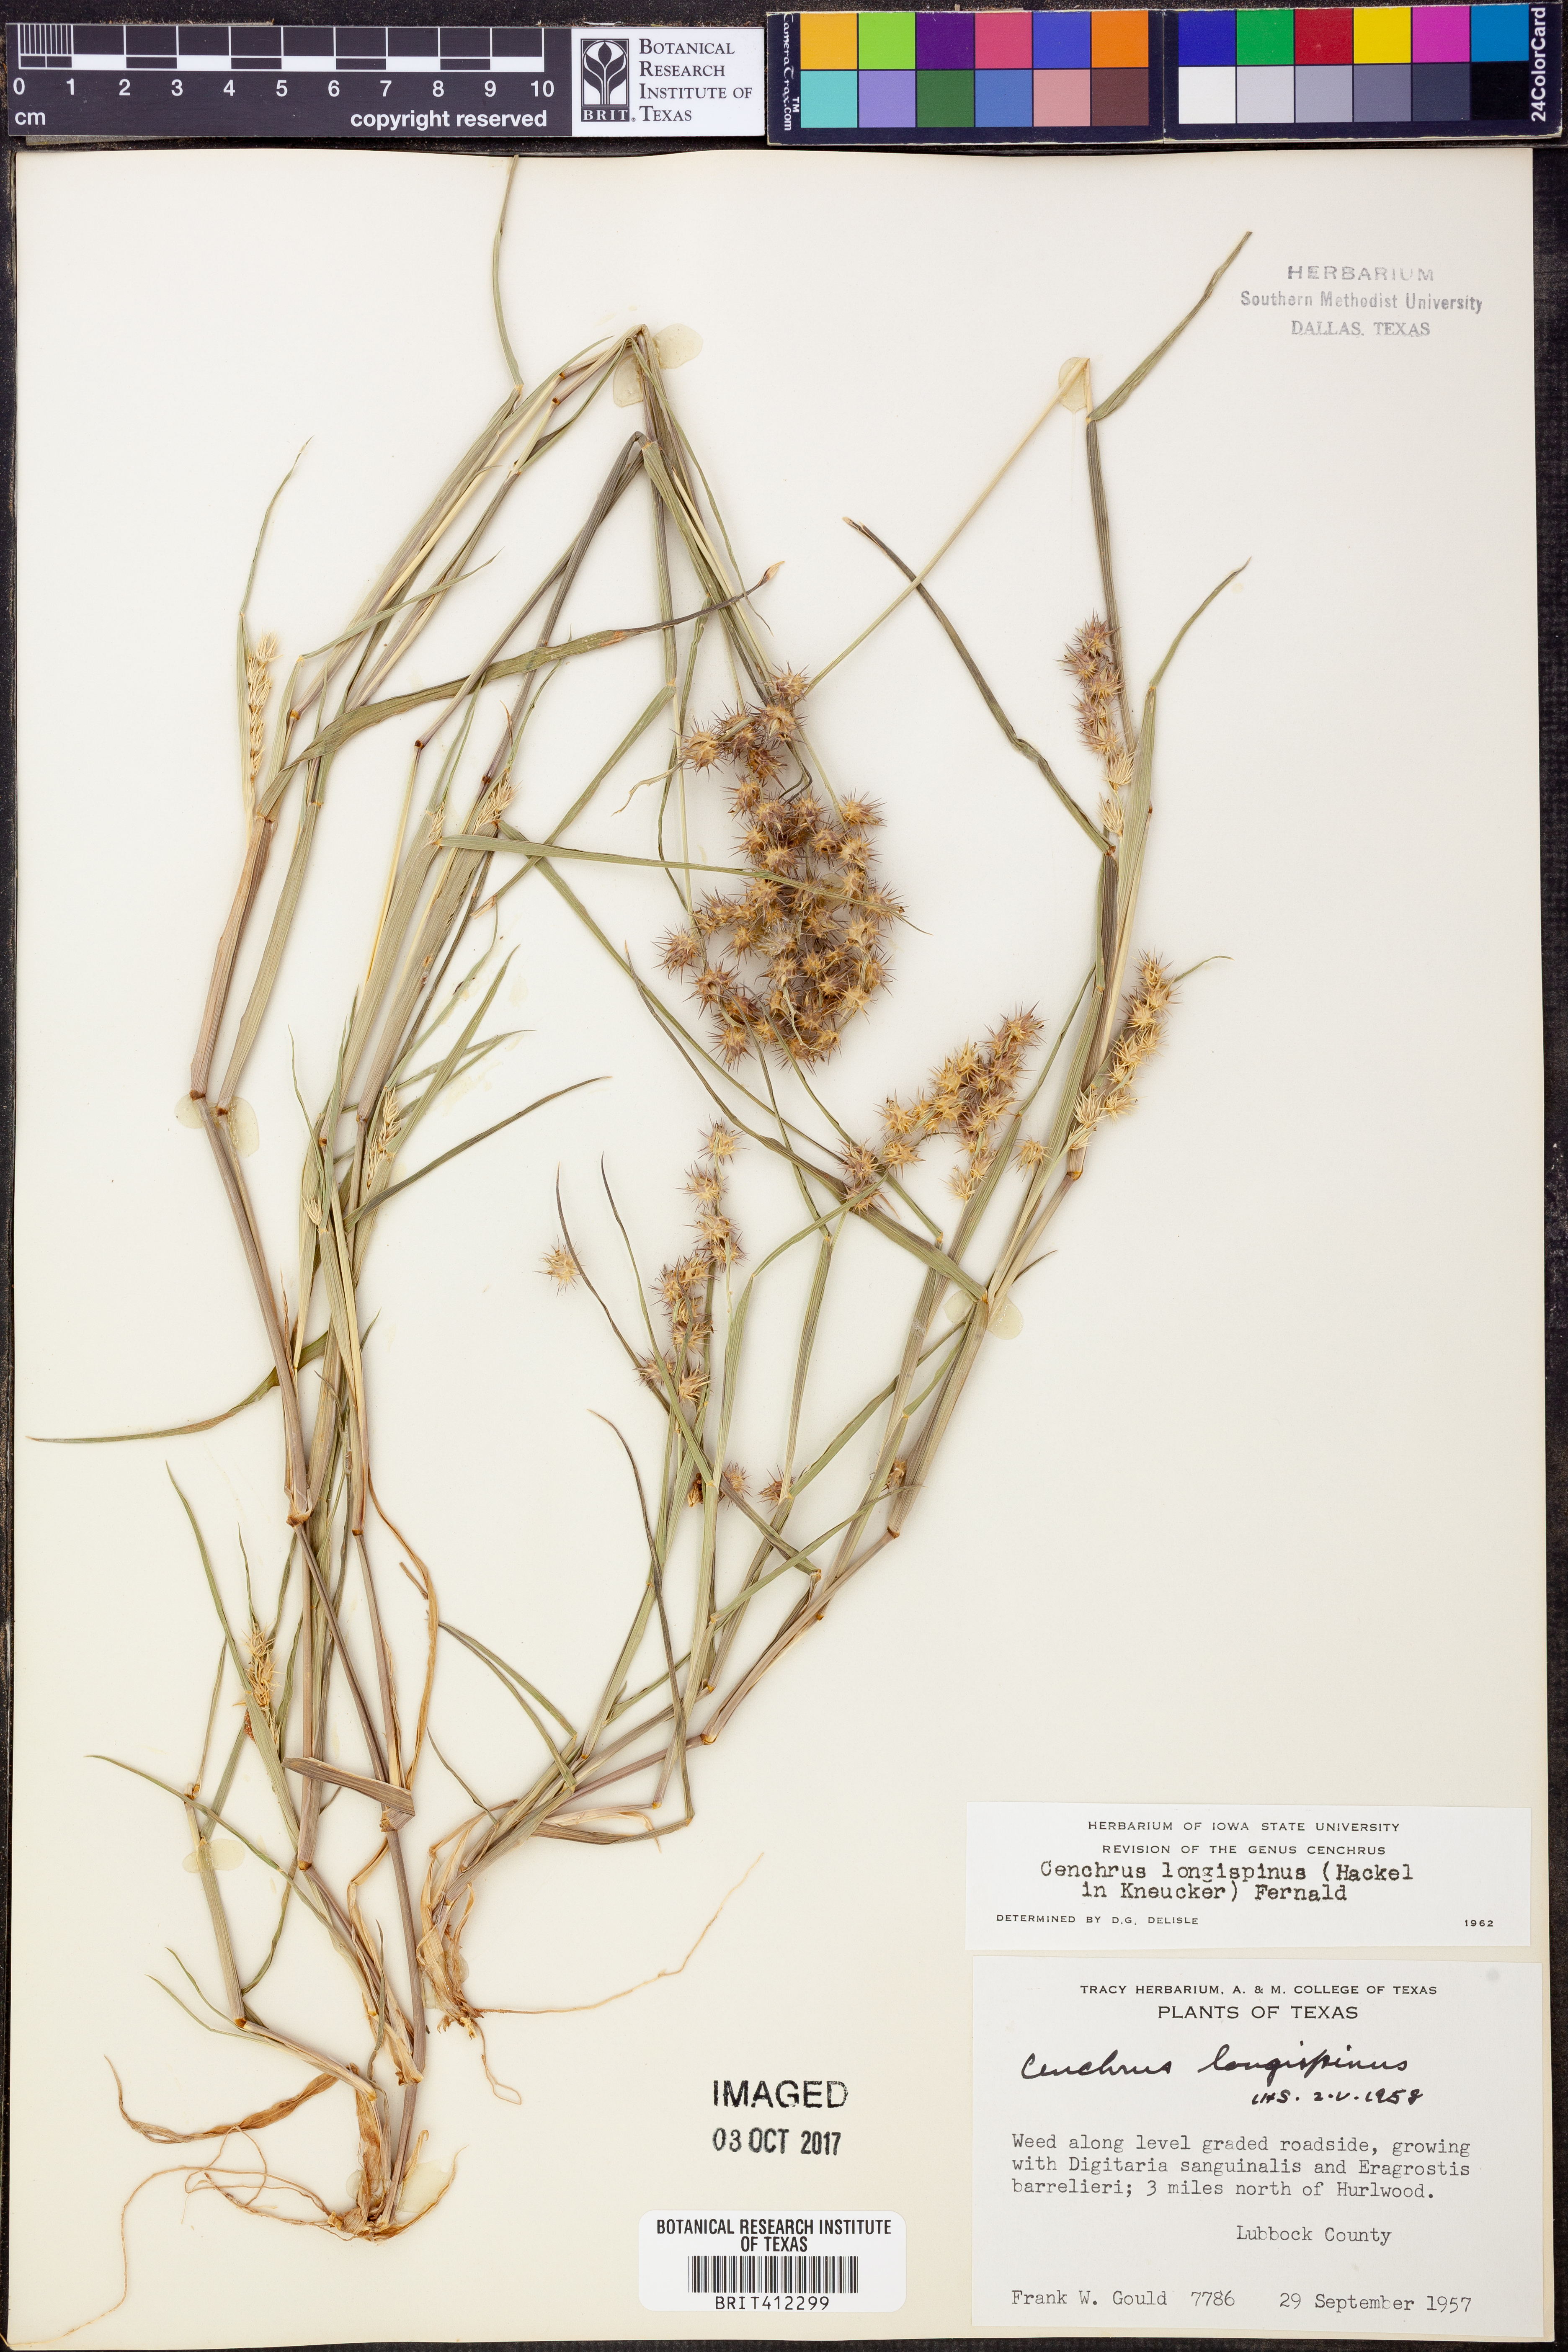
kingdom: Plantae
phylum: Tracheophyta
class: Liliopsida
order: Poales
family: Poaceae
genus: Cenchrus
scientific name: Cenchrus longispinus
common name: Mat sandbur
